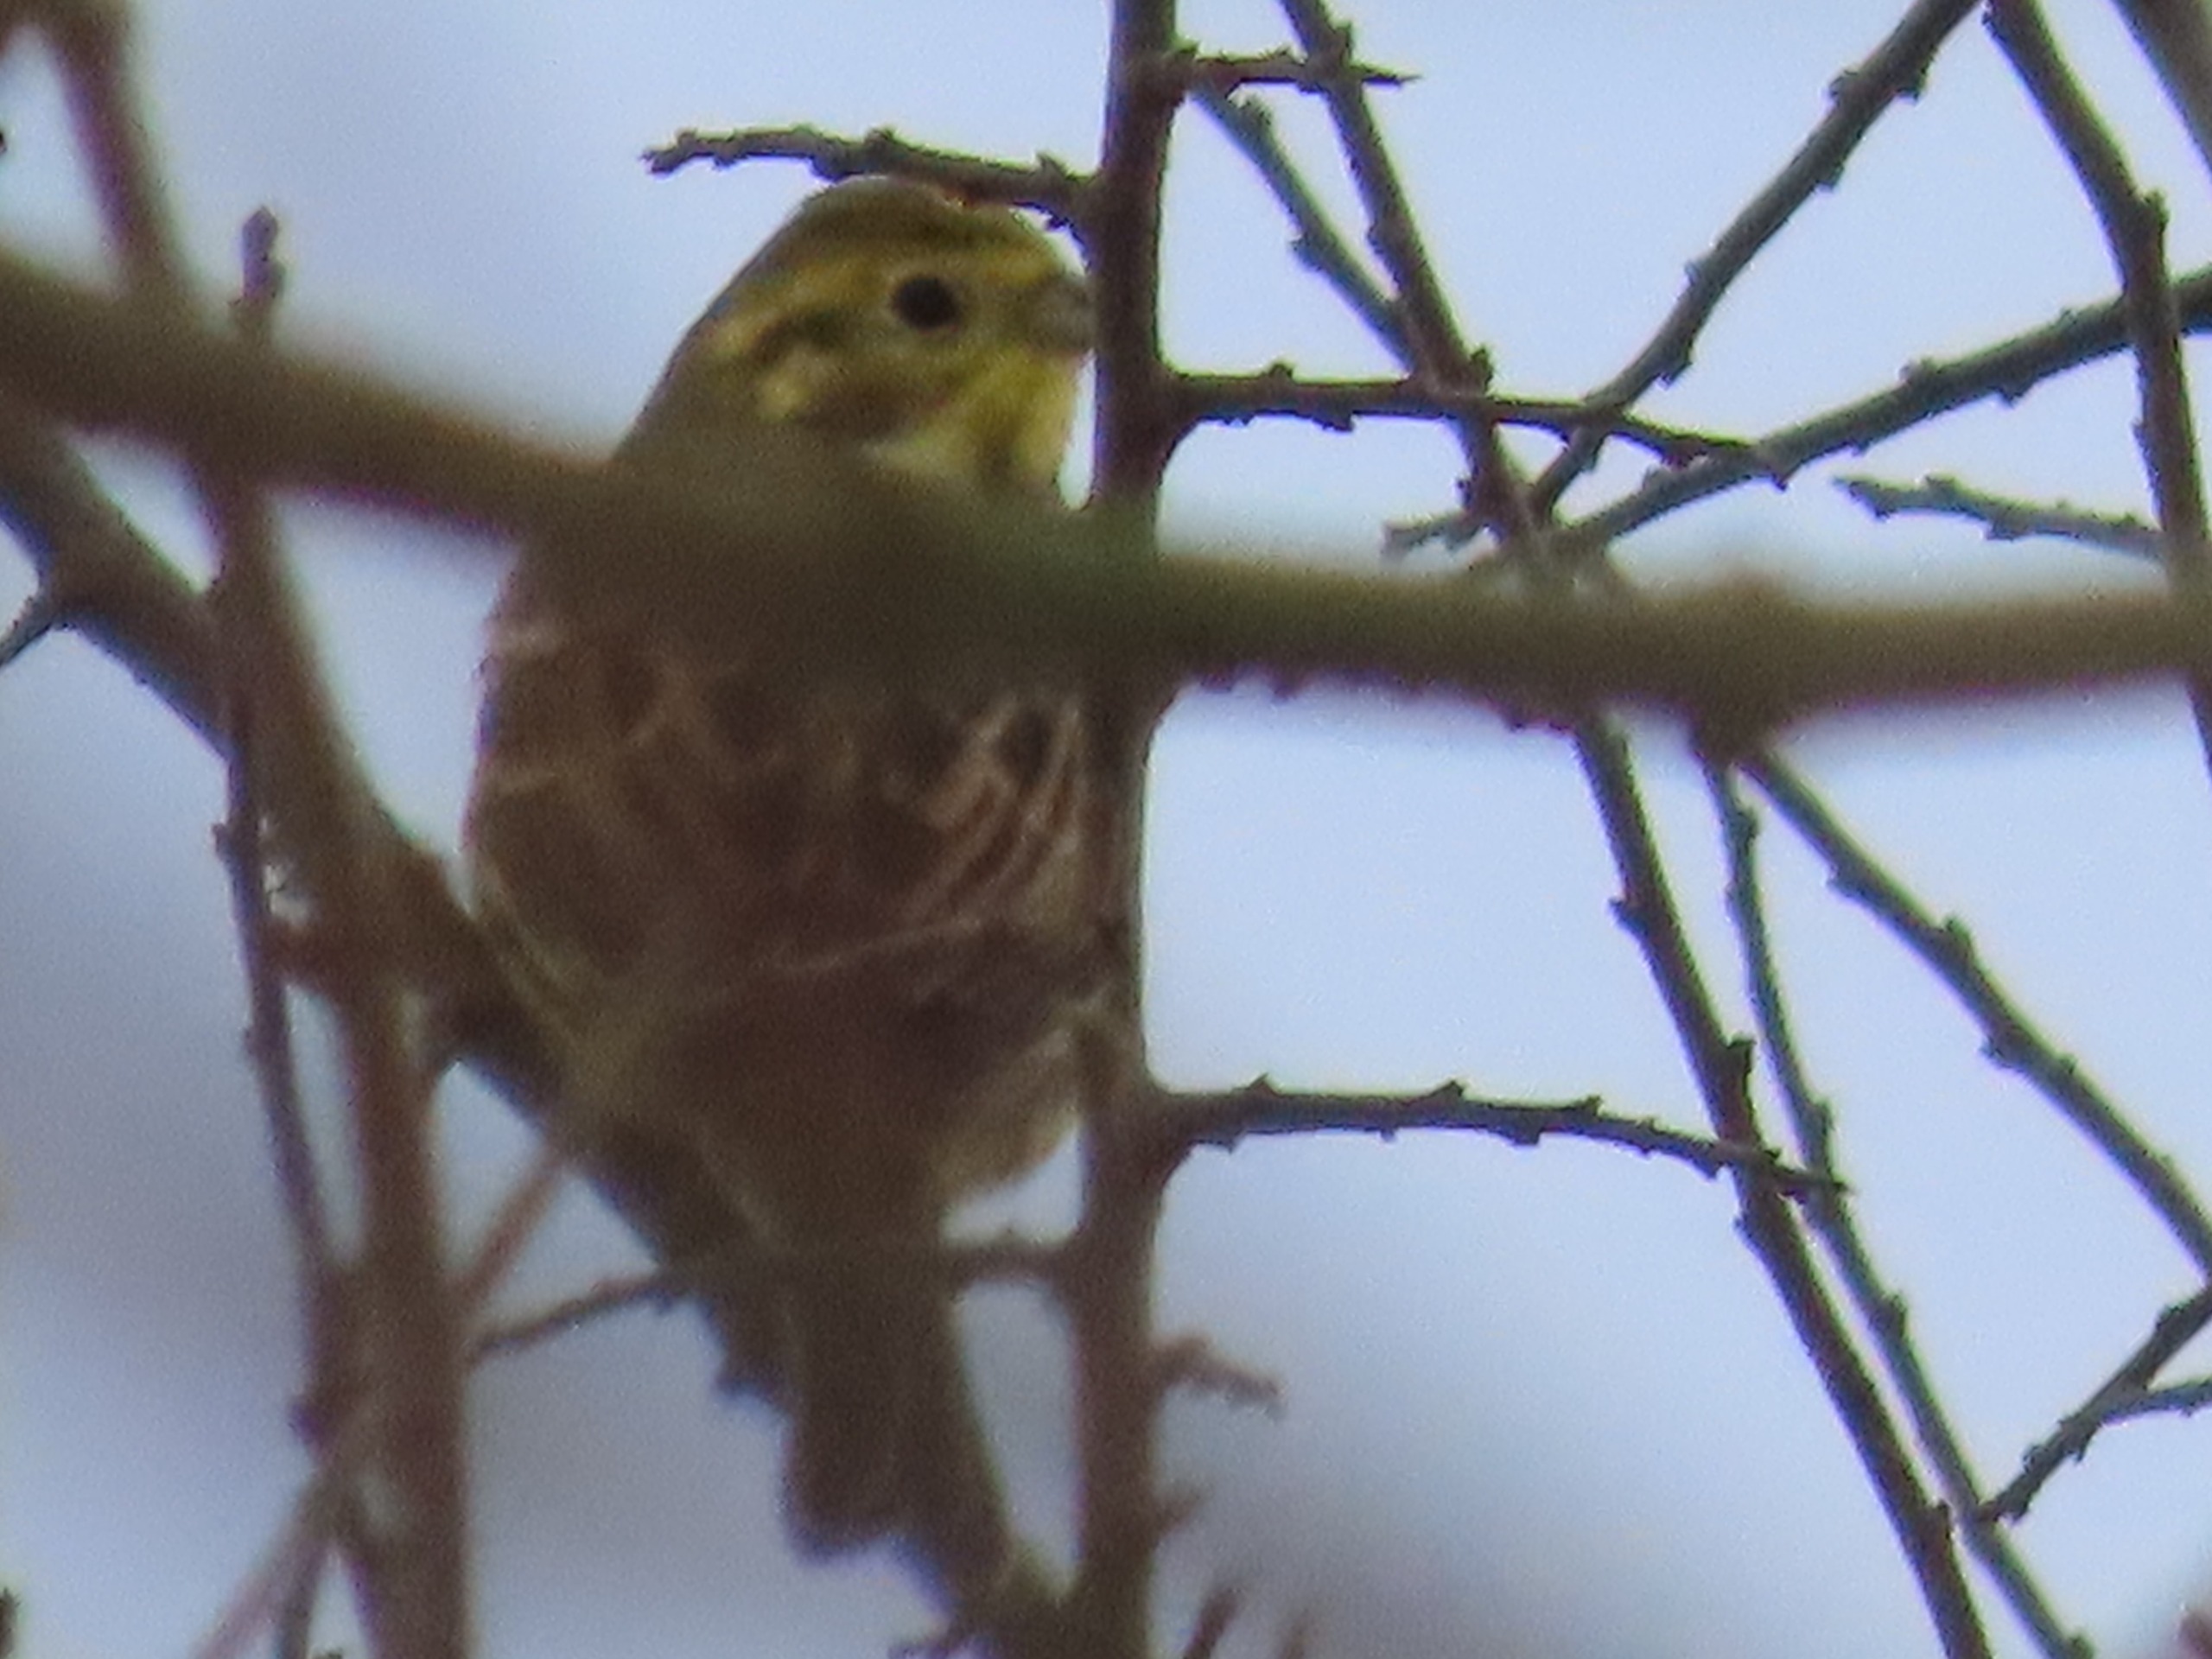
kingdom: Animalia
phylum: Chordata
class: Aves
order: Passeriformes
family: Emberizidae
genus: Emberiza
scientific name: Emberiza citrinella
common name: Gulspurv
